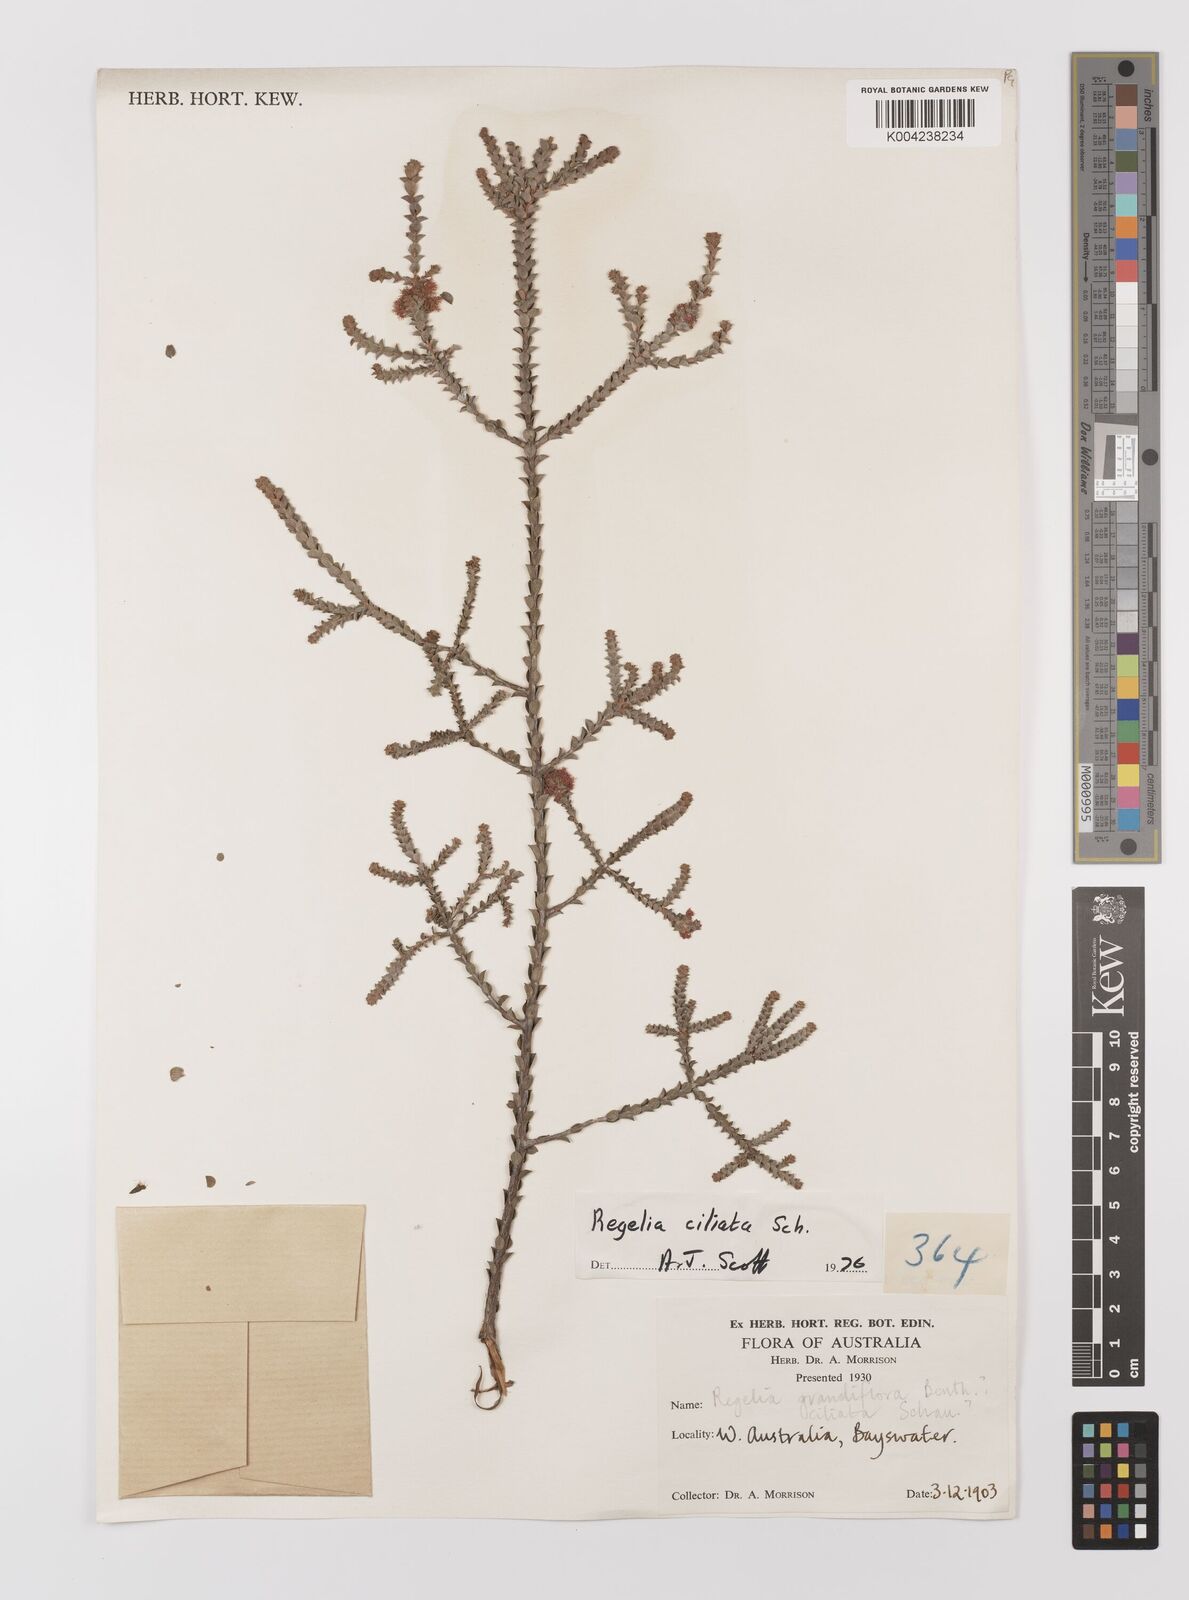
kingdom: Plantae
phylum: Tracheophyta
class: Magnoliopsida
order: Myrtales
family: Myrtaceae
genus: Melaleuca
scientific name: Melaleuca crossota
